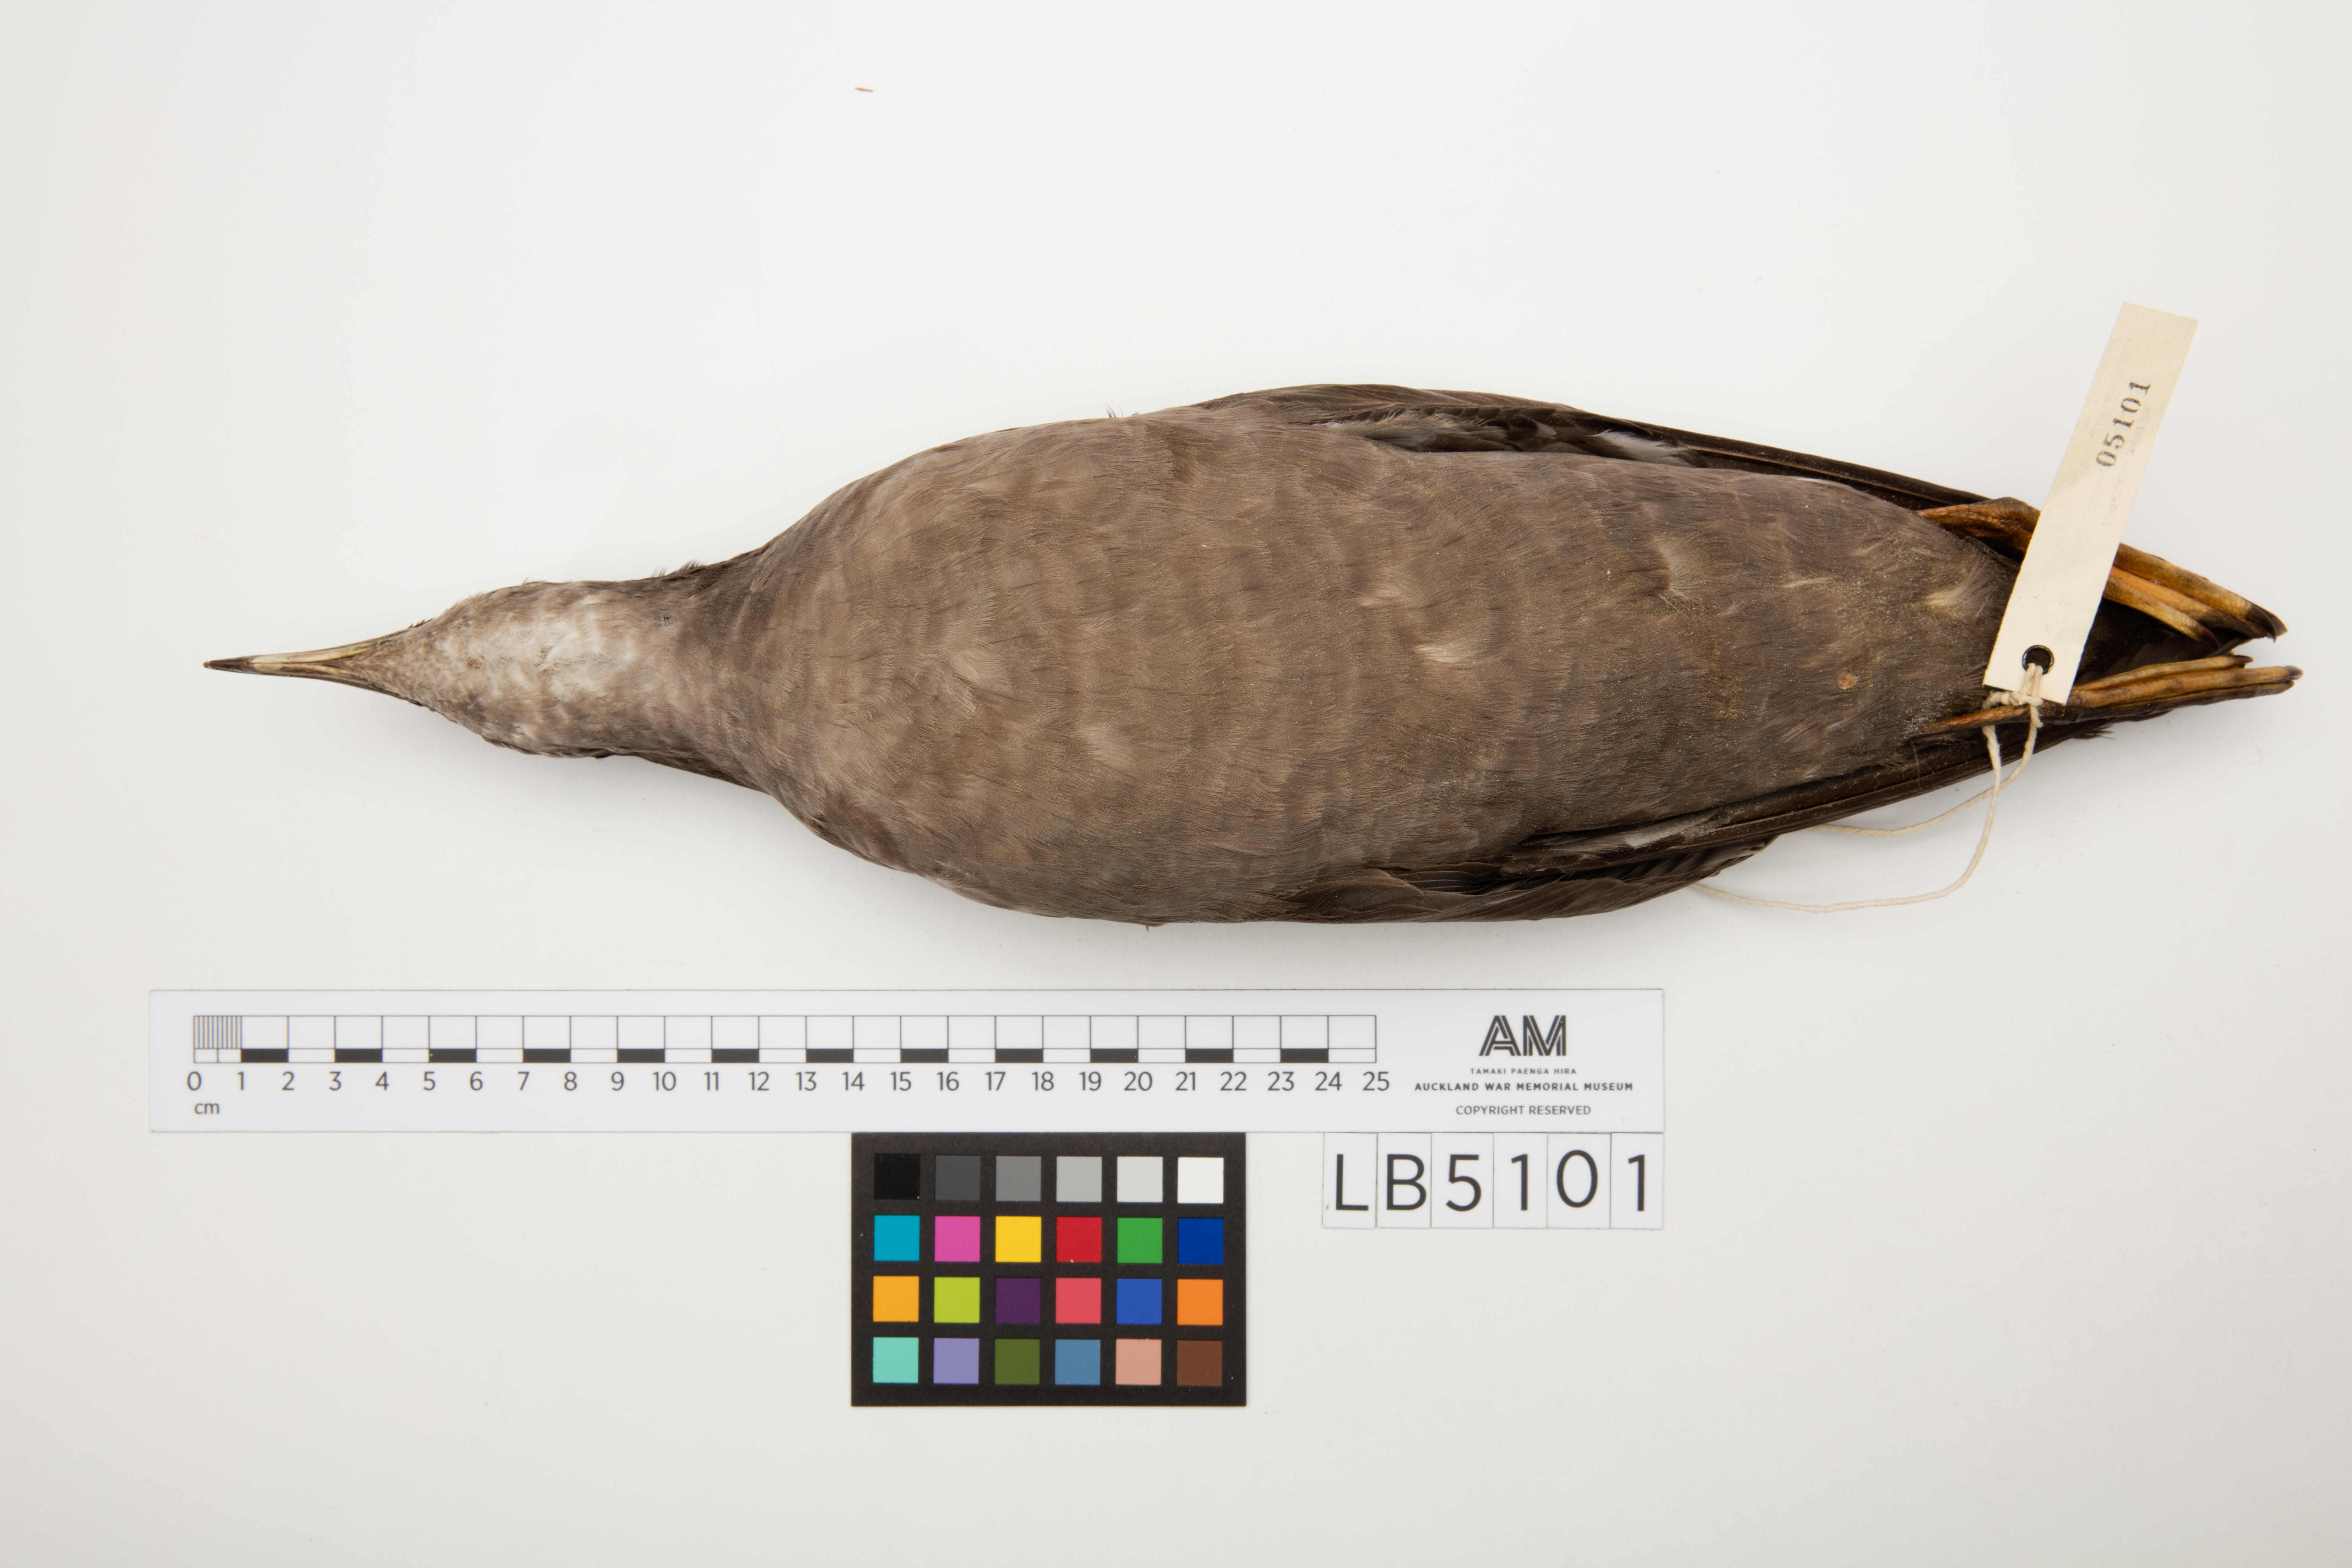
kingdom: Animalia
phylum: Chordata
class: Aves
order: Procellariiformes
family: Procellariidae
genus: Puffinus
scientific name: Puffinus tenuirostris
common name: Short-tailed shearwater
